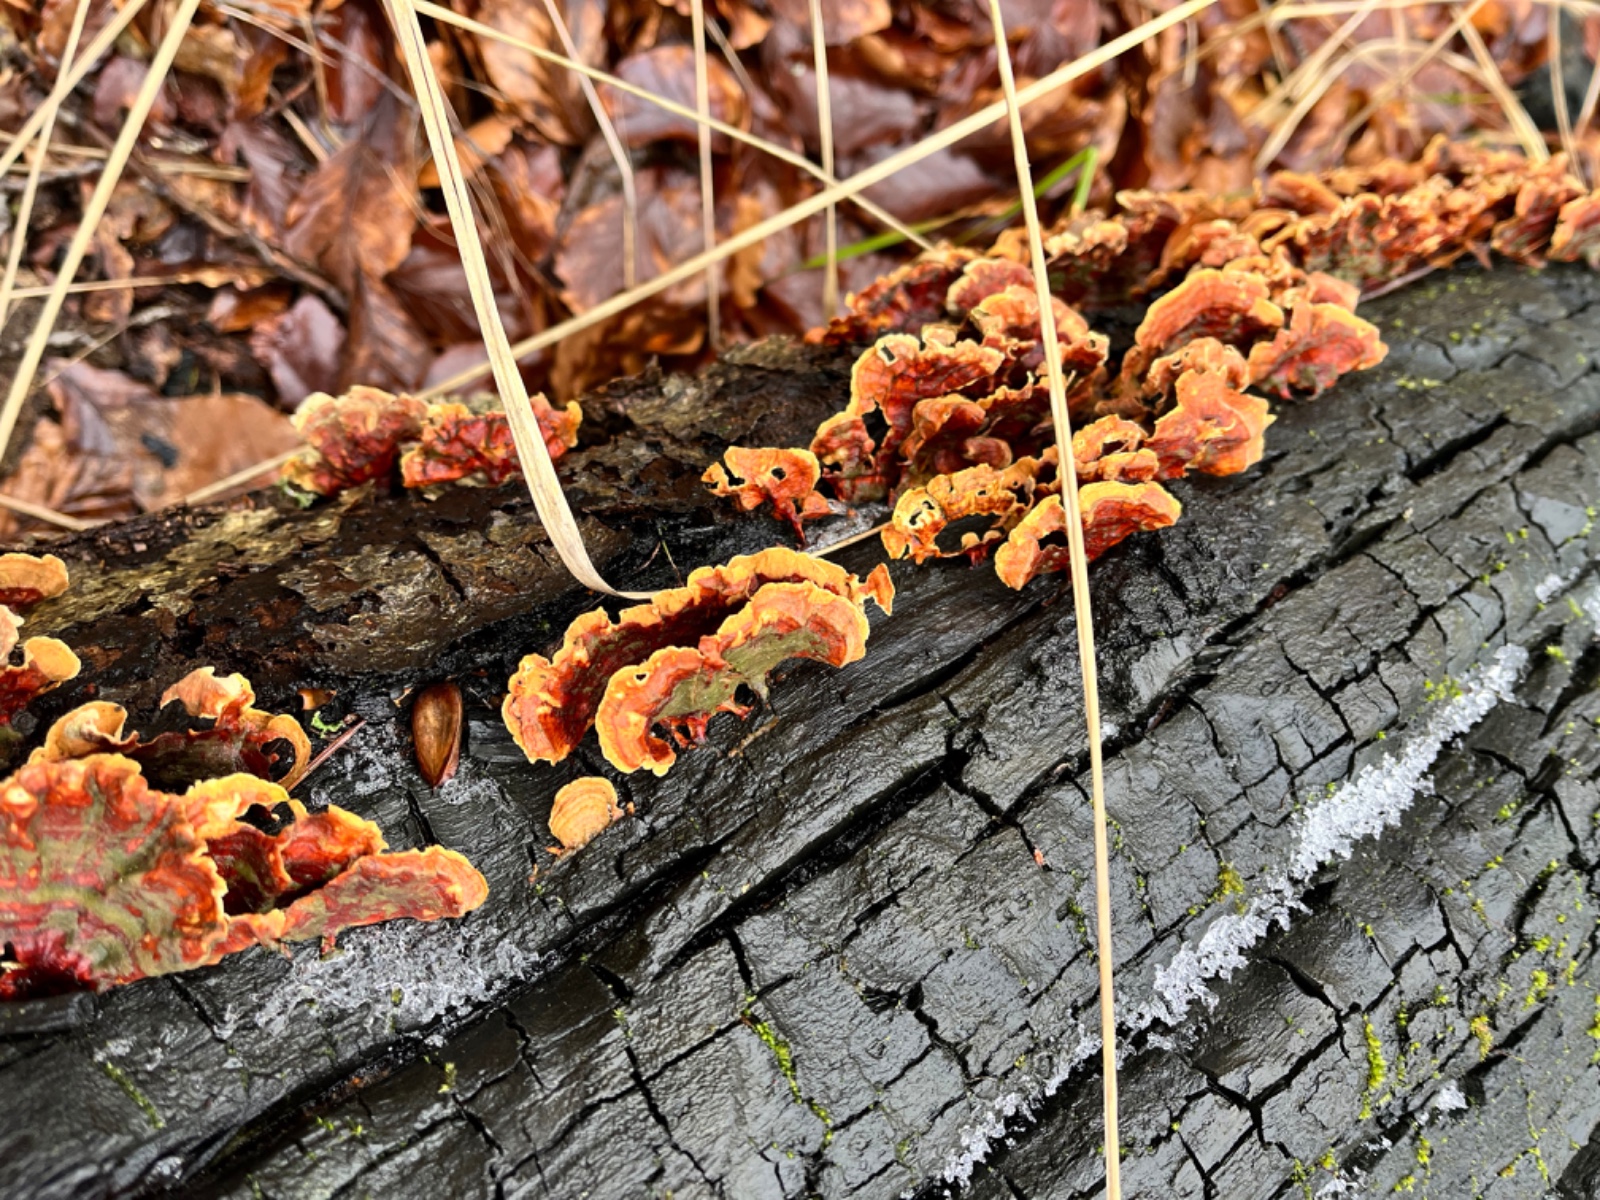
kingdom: Fungi
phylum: Basidiomycota
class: Agaricomycetes
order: Russulales
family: Stereaceae
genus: Stereum
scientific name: Stereum subtomentosum
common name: smuk lædersvamp
